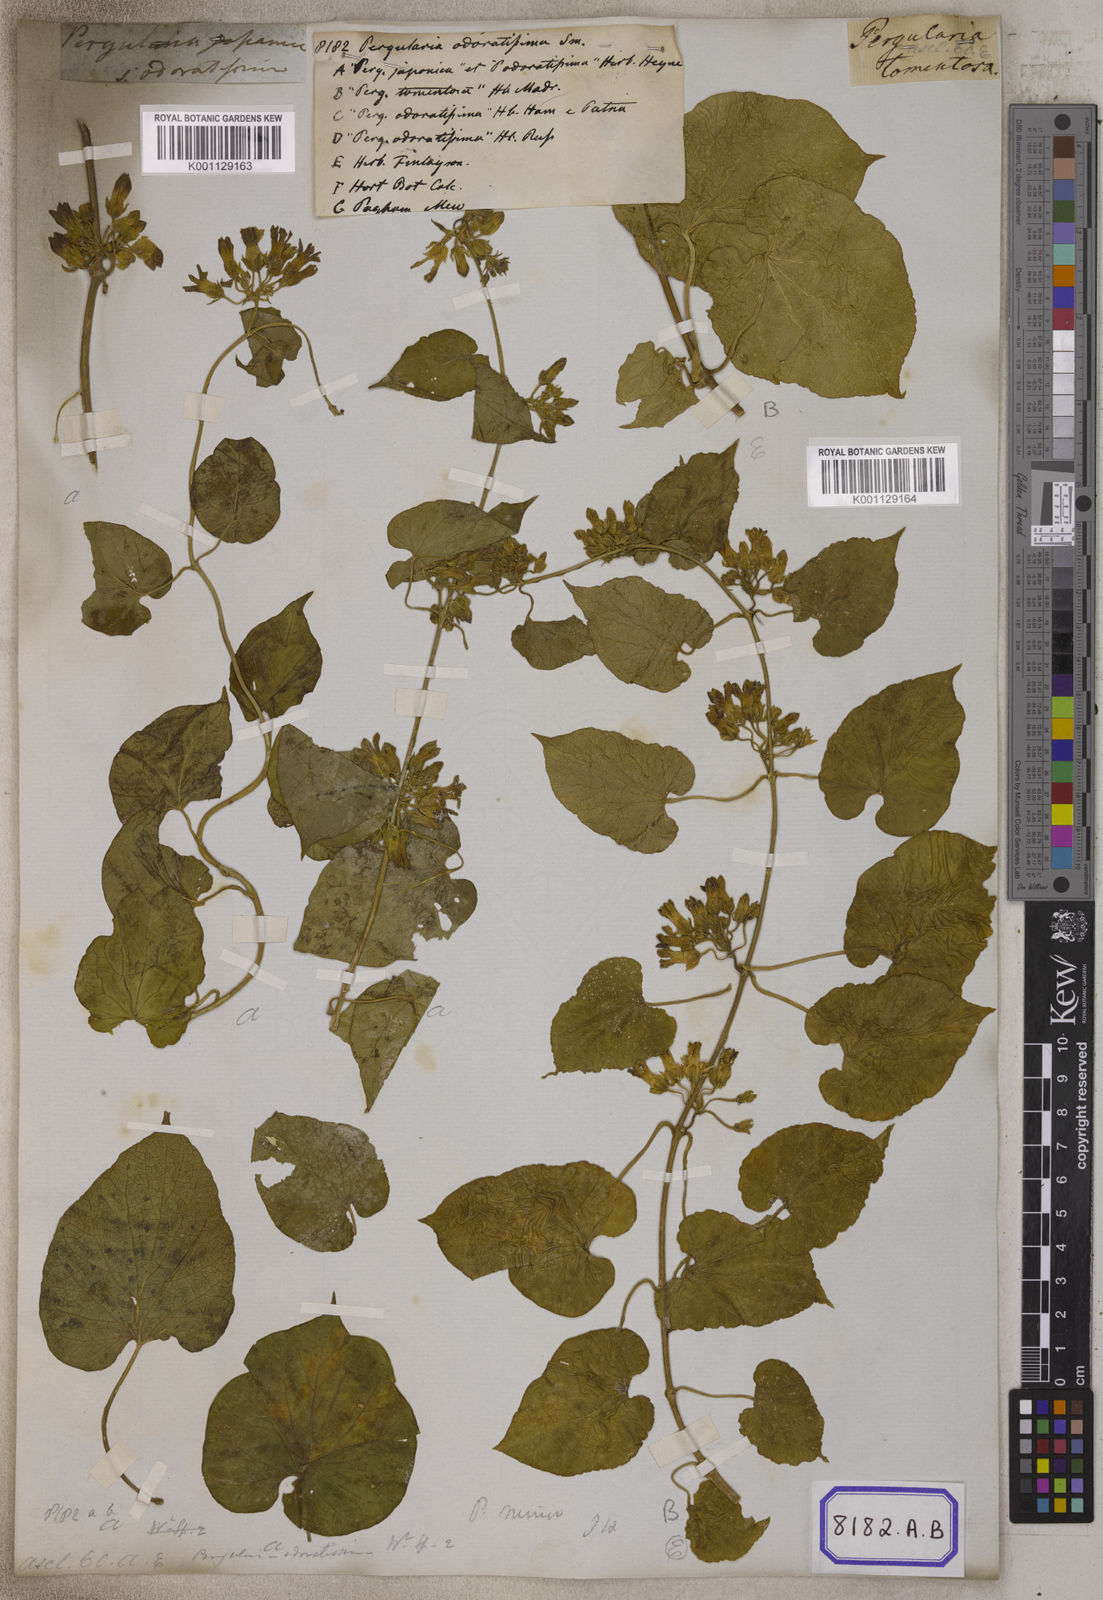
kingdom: Plantae
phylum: Tracheophyta
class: Magnoliopsida
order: Gentianales
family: Apocynaceae
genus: Telosma
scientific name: Telosma cordata
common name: Chinese-violet
